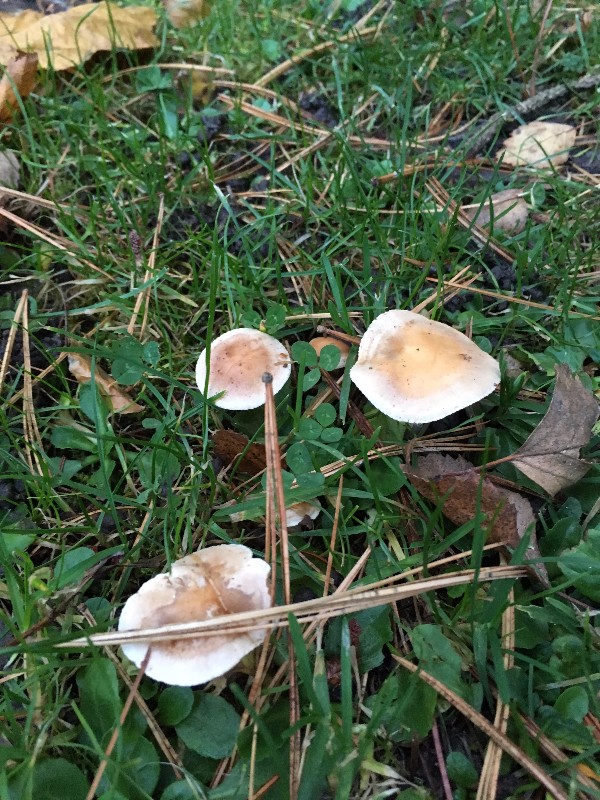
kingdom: Fungi
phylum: Basidiomycota
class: Agaricomycetes
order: Agaricales
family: Hymenogastraceae
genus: Hebeloma
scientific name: Hebeloma
